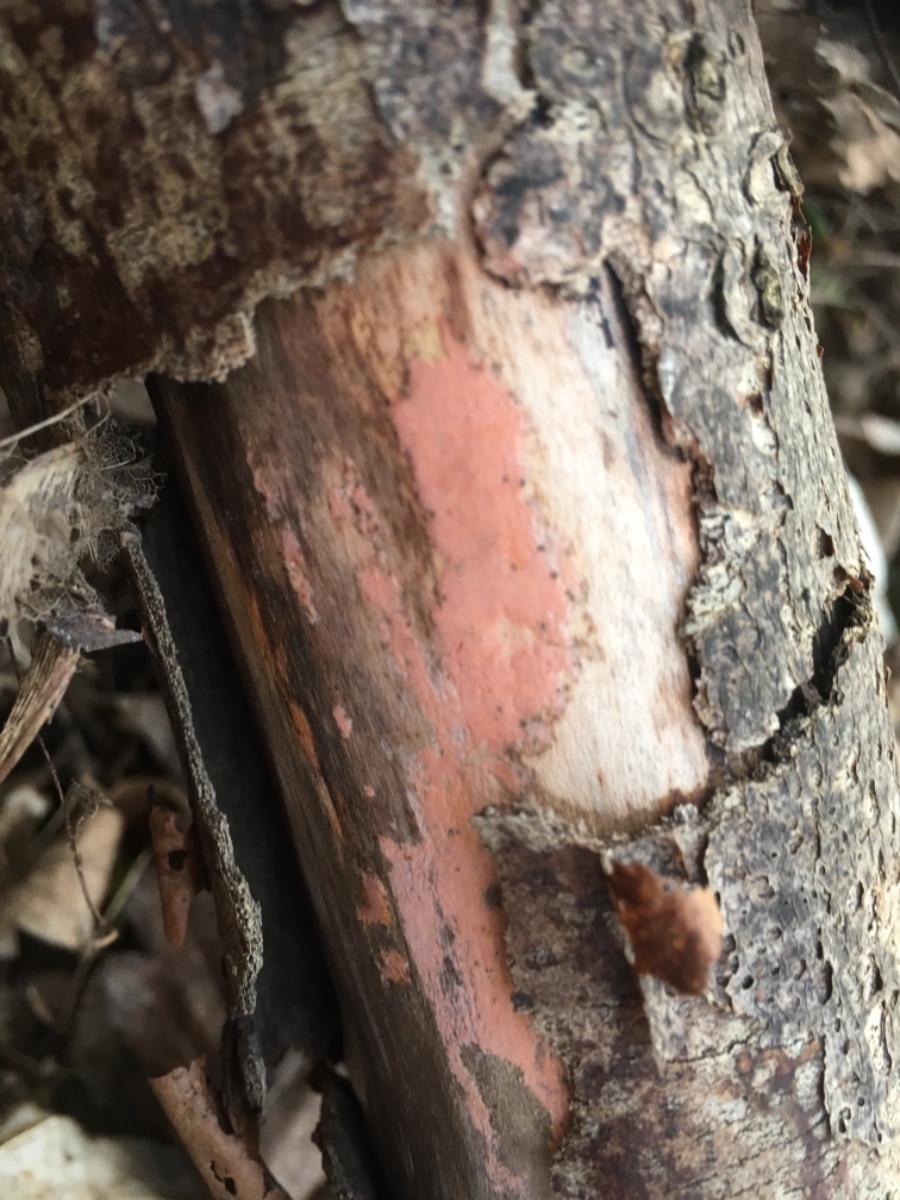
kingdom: Fungi
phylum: Basidiomycota
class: Agaricomycetes
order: Russulales
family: Peniophoraceae
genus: Peniophora
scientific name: Peniophora incarnata
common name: laksefarvet voksskind
